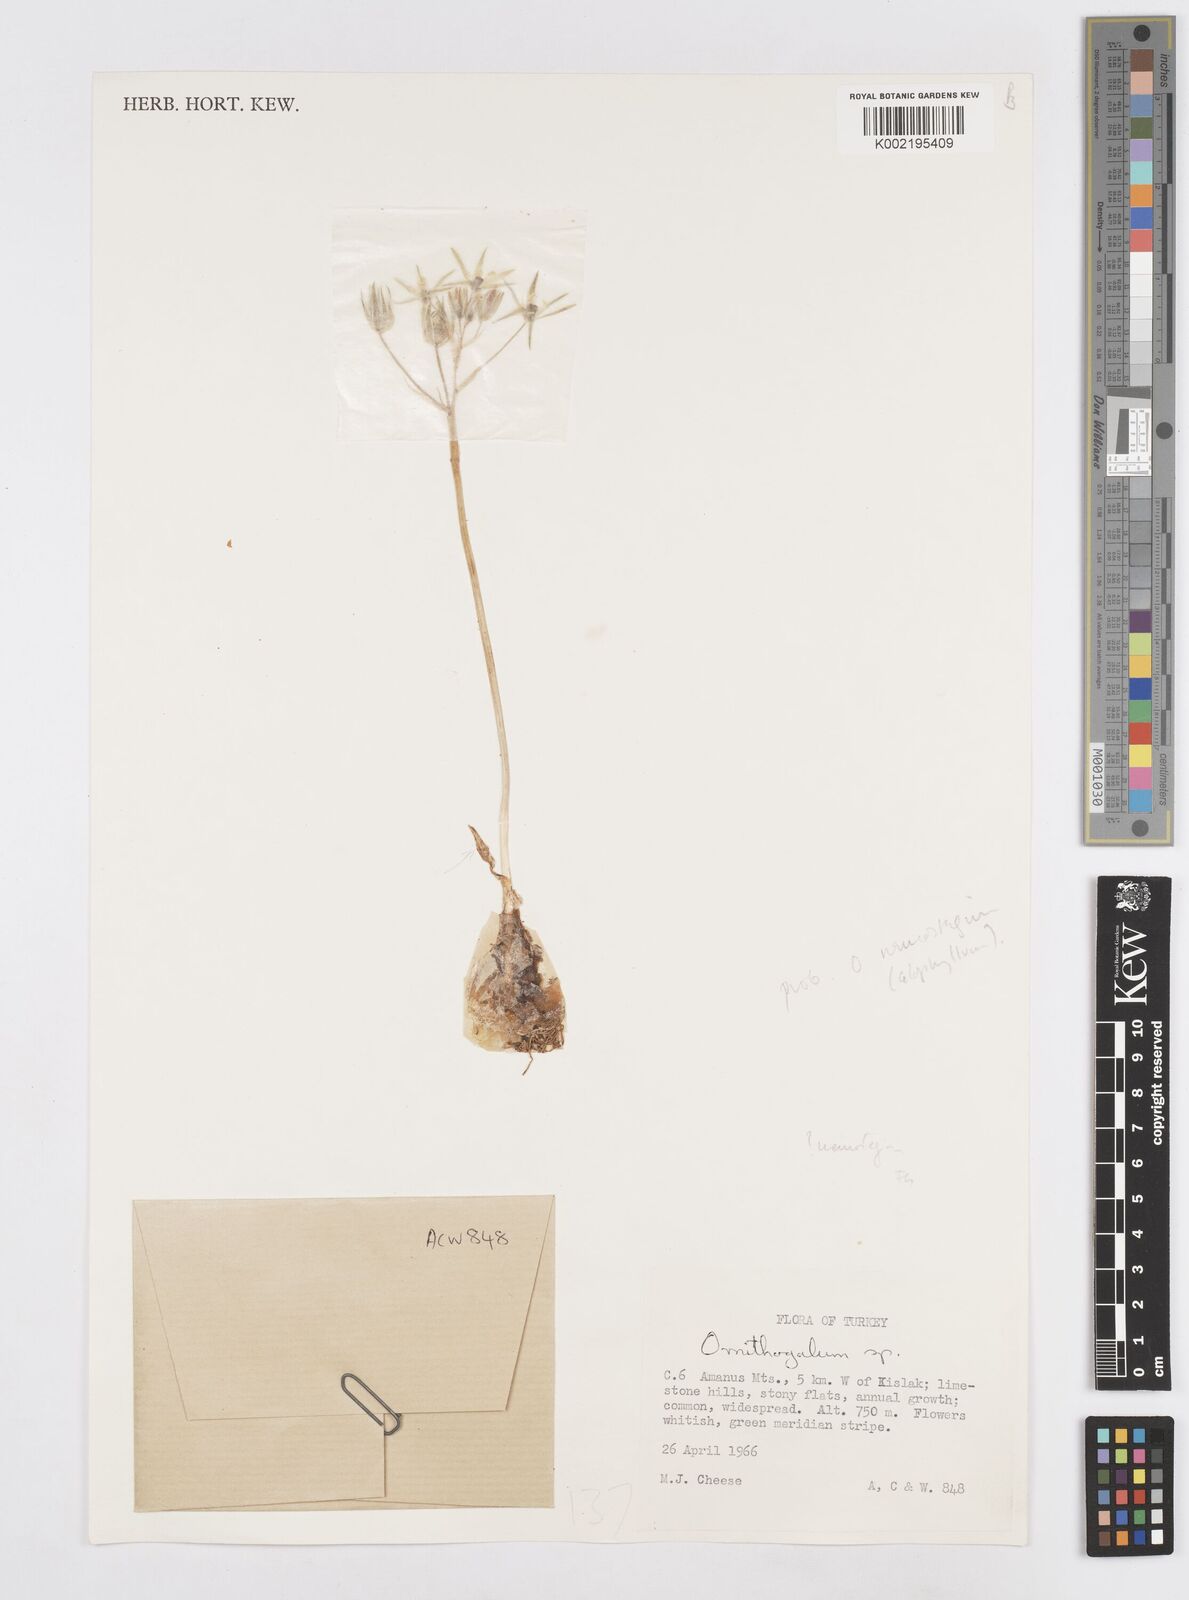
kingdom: Plantae
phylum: Tracheophyta
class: Liliopsida
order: Asparagales
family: Asparagaceae
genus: Ornithogalum
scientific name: Ornithogalum neurostegium
